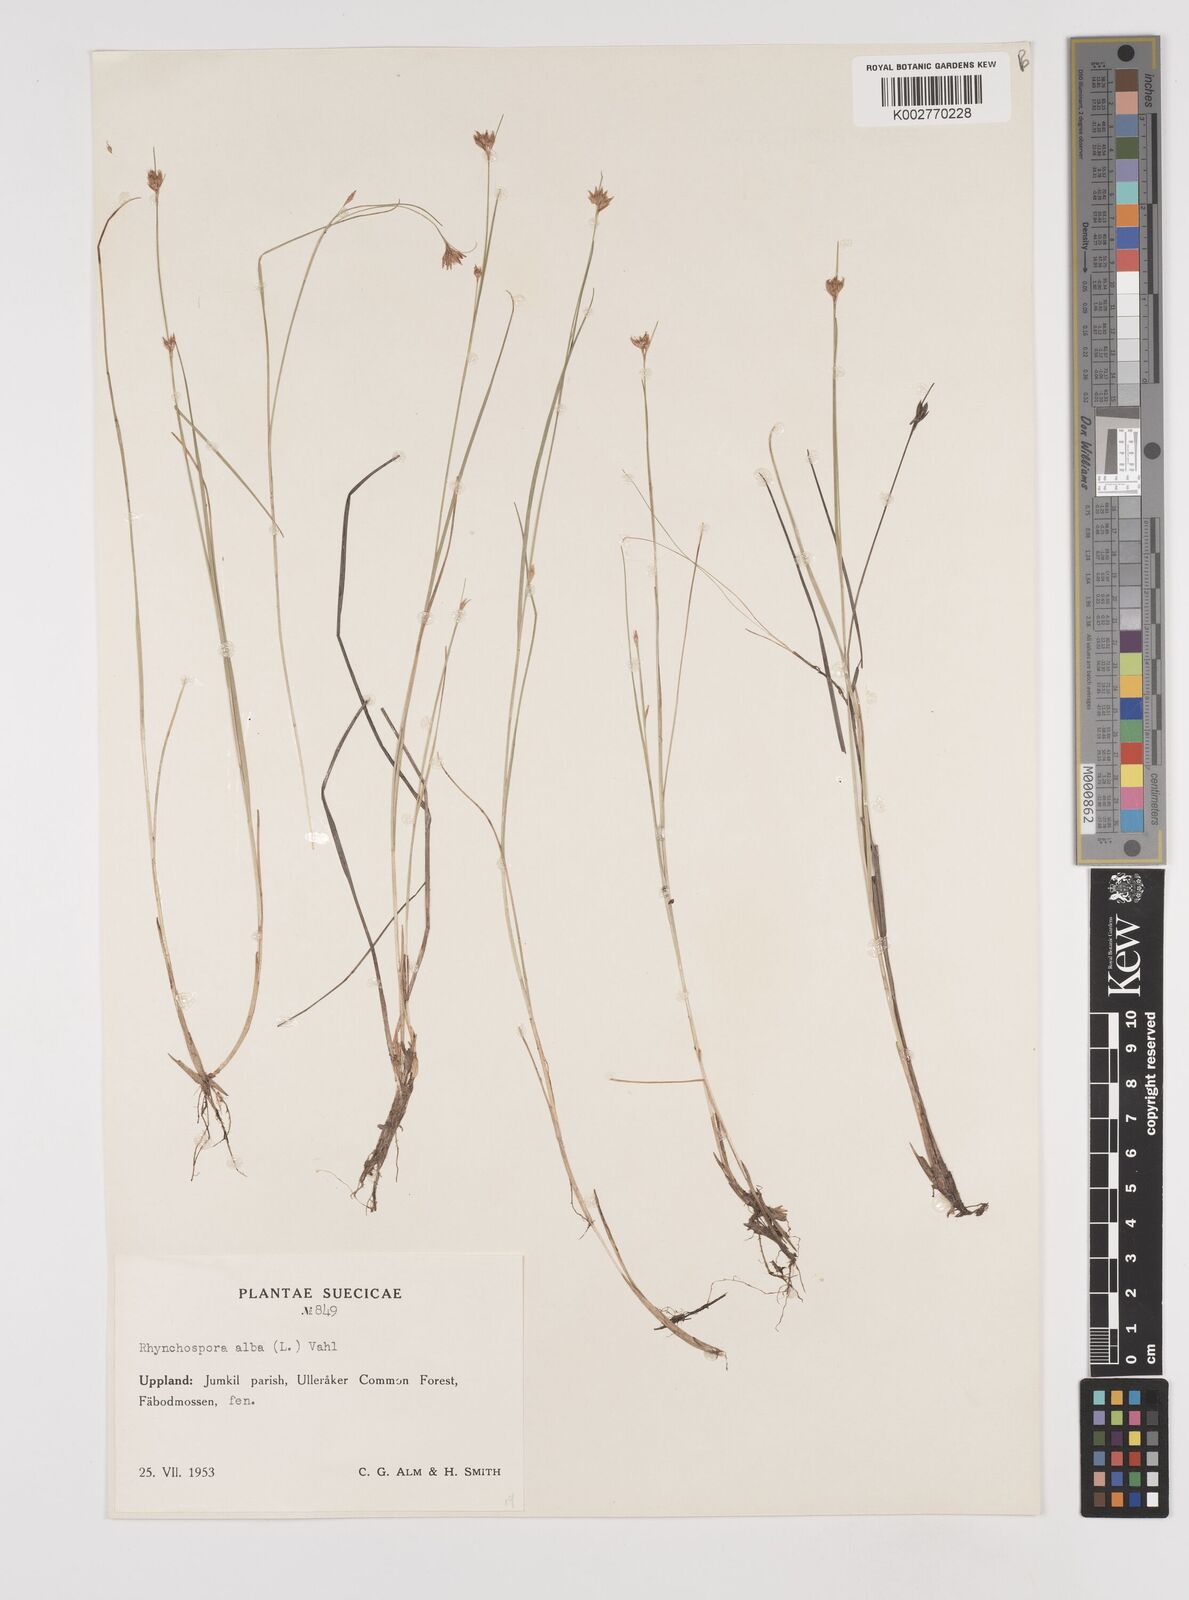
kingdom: Plantae
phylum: Tracheophyta
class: Liliopsida
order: Poales
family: Cyperaceae
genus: Rhynchospora
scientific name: Rhynchospora alba
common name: White beak-sedge
